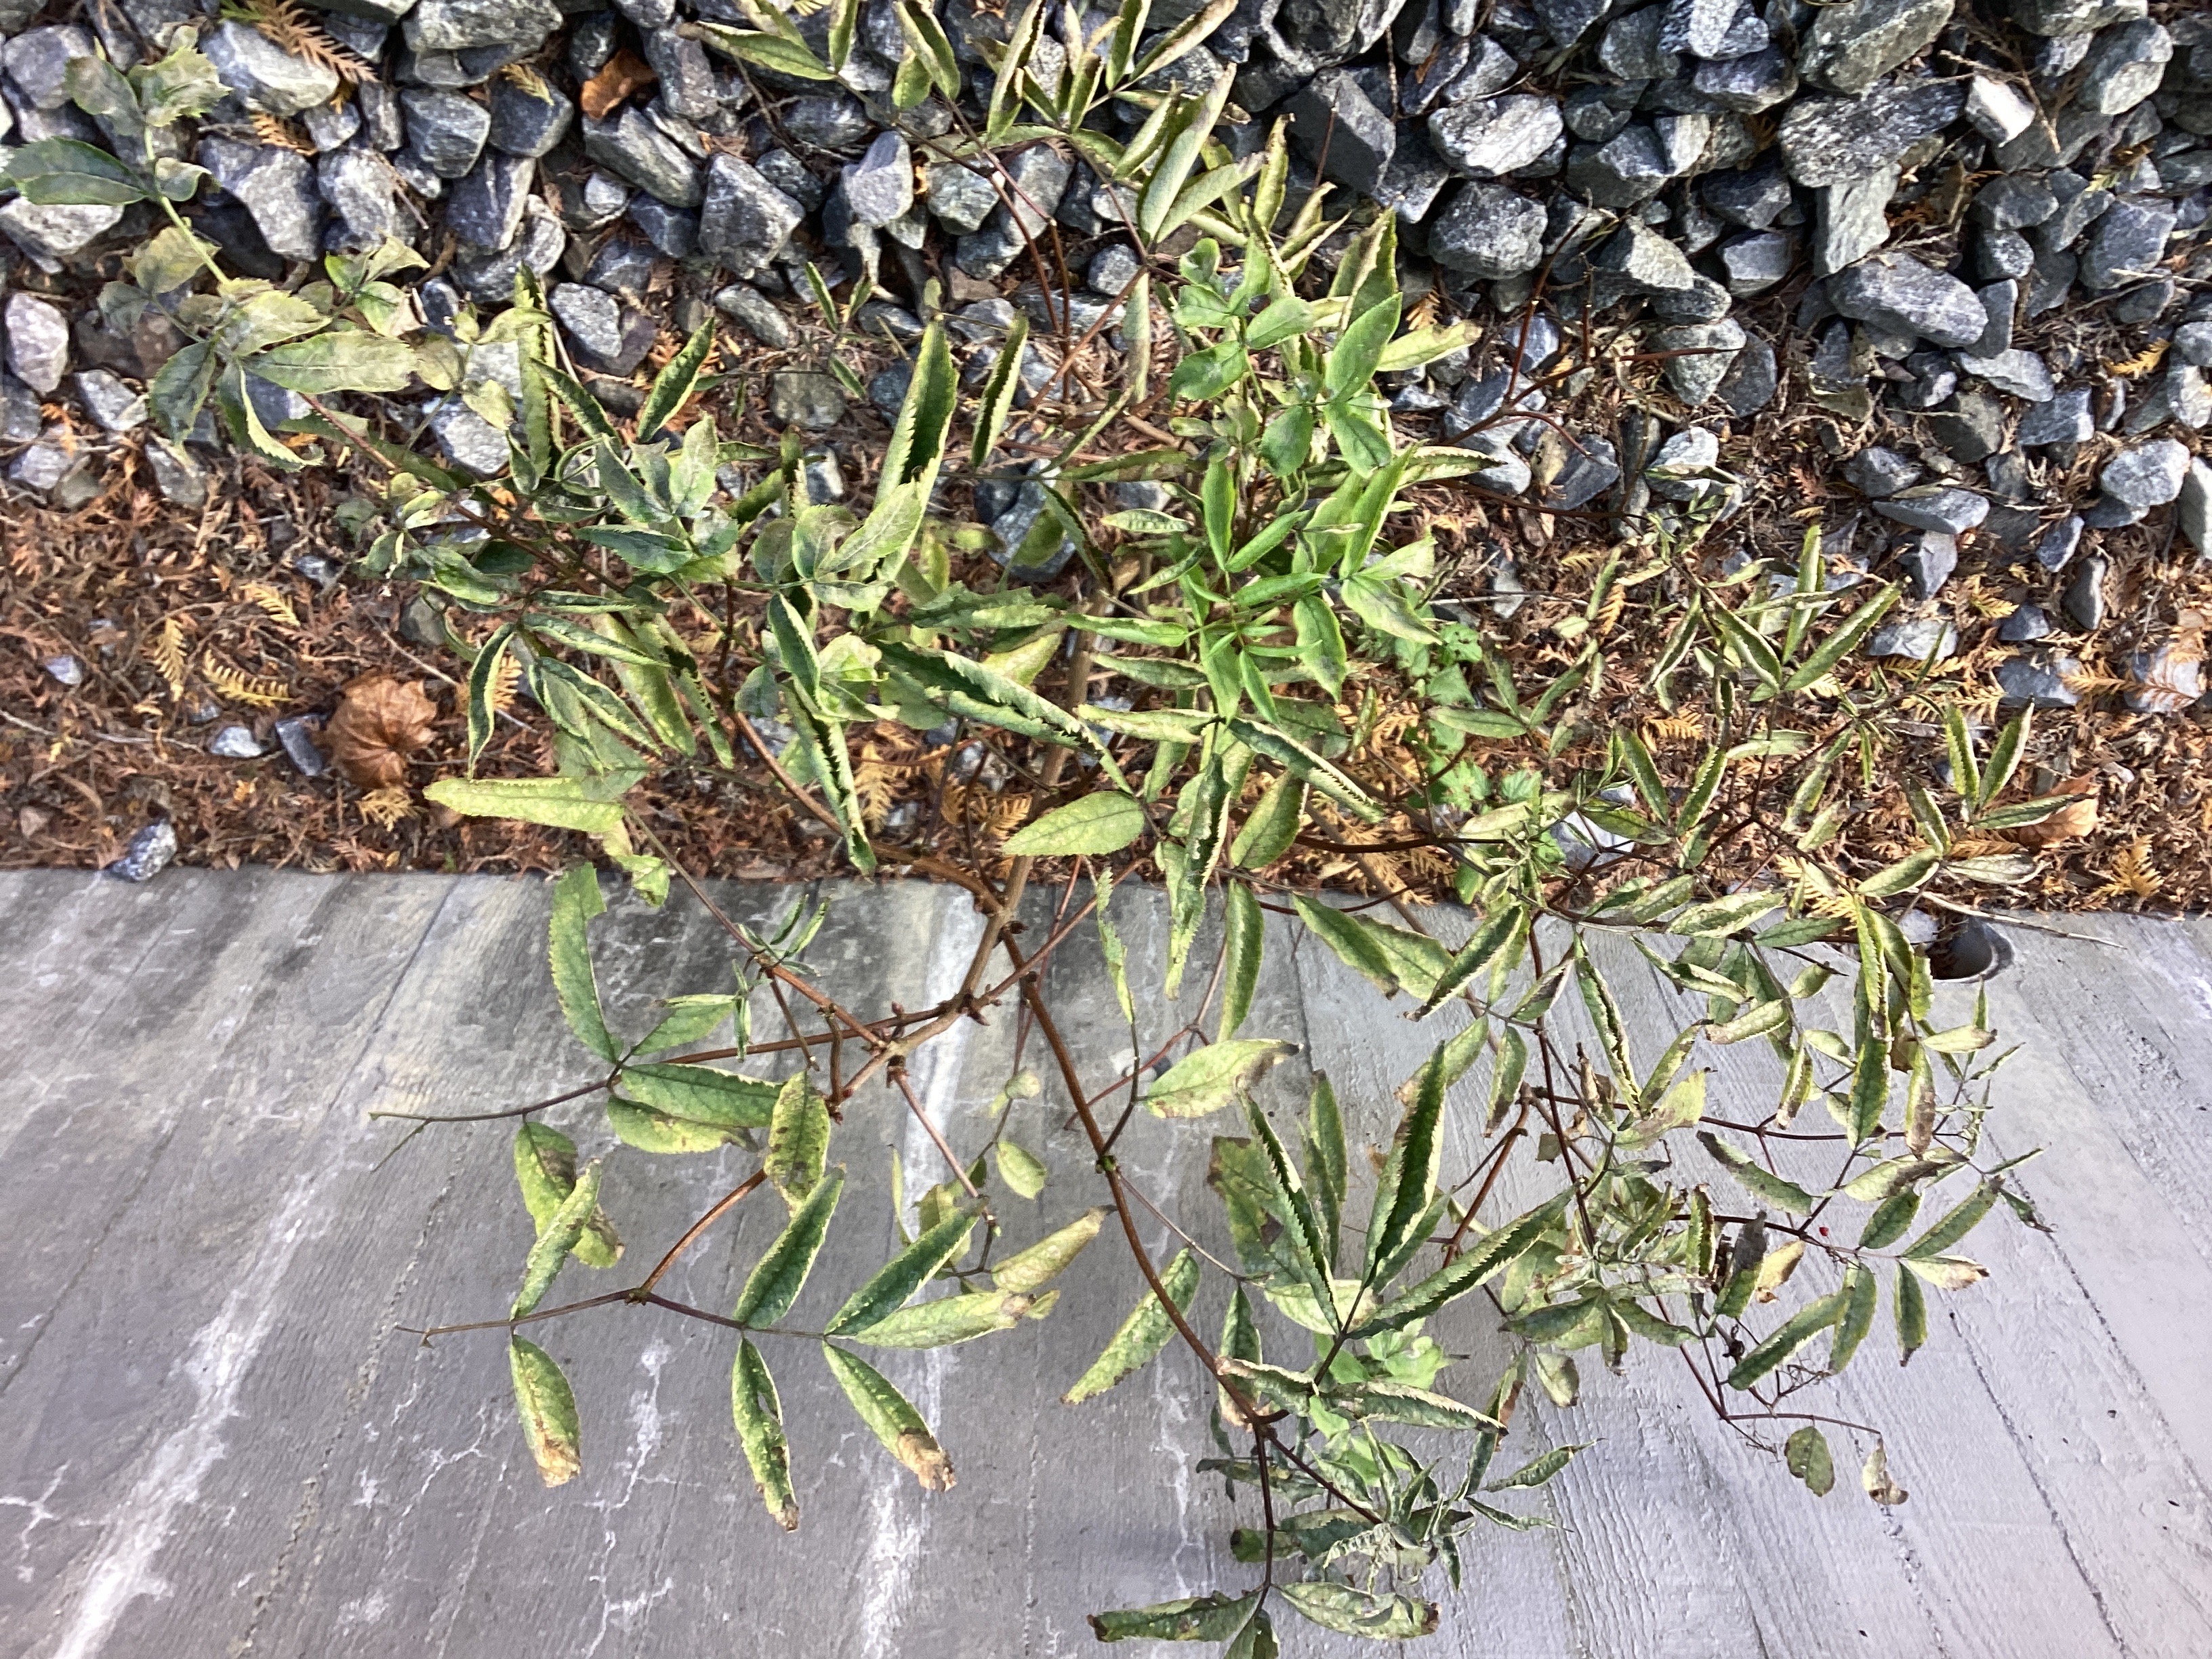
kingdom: Plantae
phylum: Tracheophyta
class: Magnoliopsida
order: Dipsacales
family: Viburnaceae
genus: Sambucus
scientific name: Sambucus racemosa
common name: rødhyll
